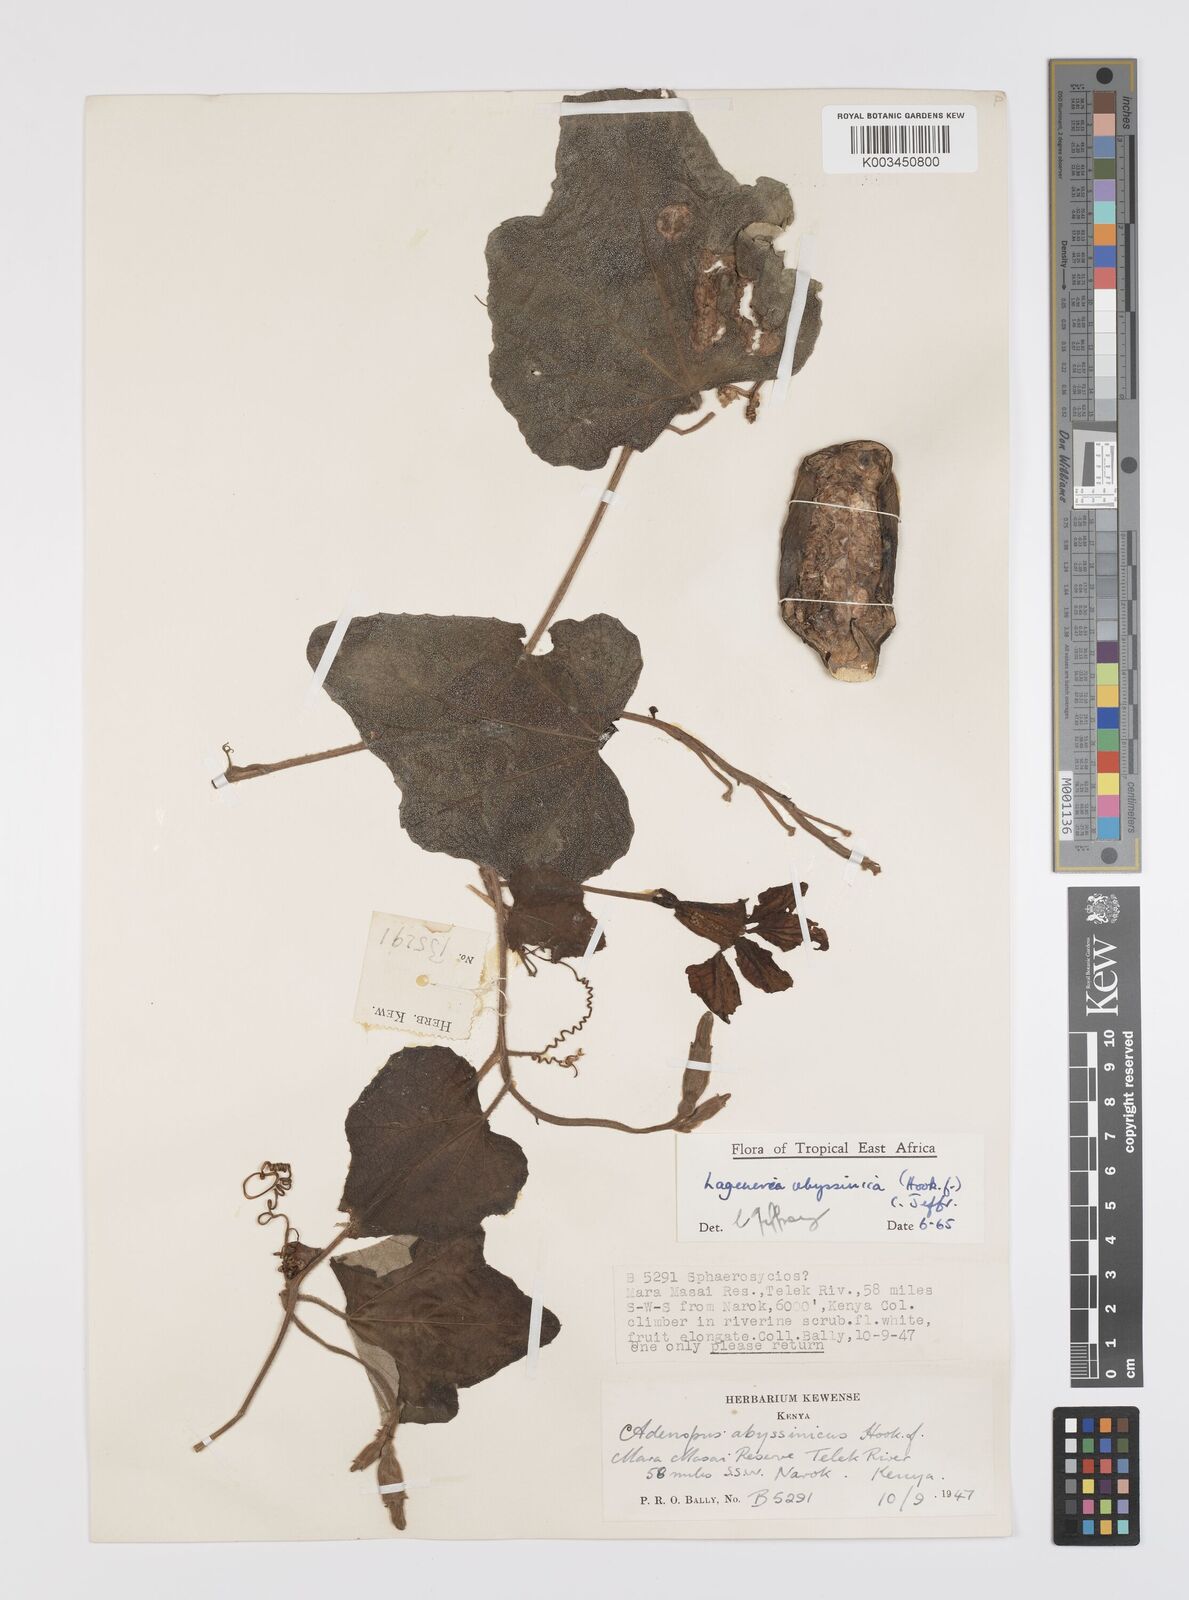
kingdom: Plantae
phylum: Tracheophyta
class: Magnoliopsida
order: Cucurbitales
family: Cucurbitaceae
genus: Lagenaria
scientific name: Lagenaria abyssinica
